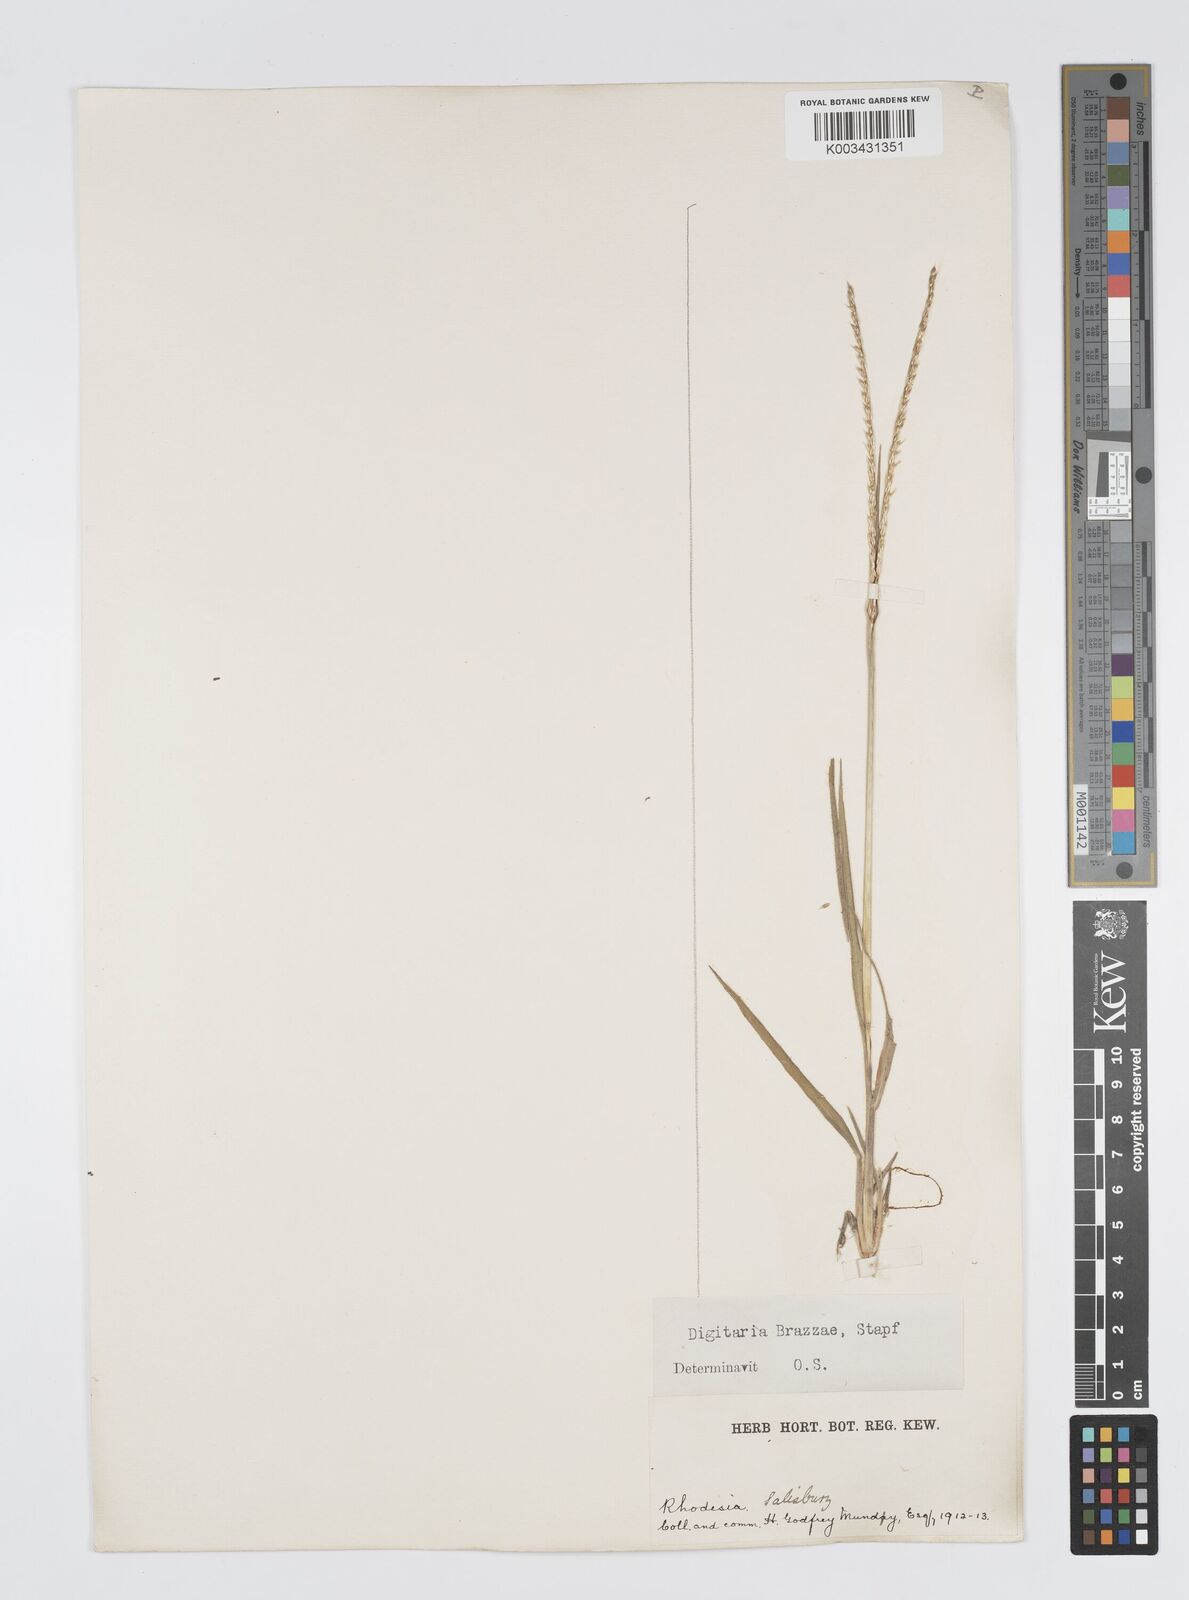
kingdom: Plantae
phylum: Tracheophyta
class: Liliopsida
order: Poales
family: Poaceae
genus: Digitaria
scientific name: Digitaria brazzae
